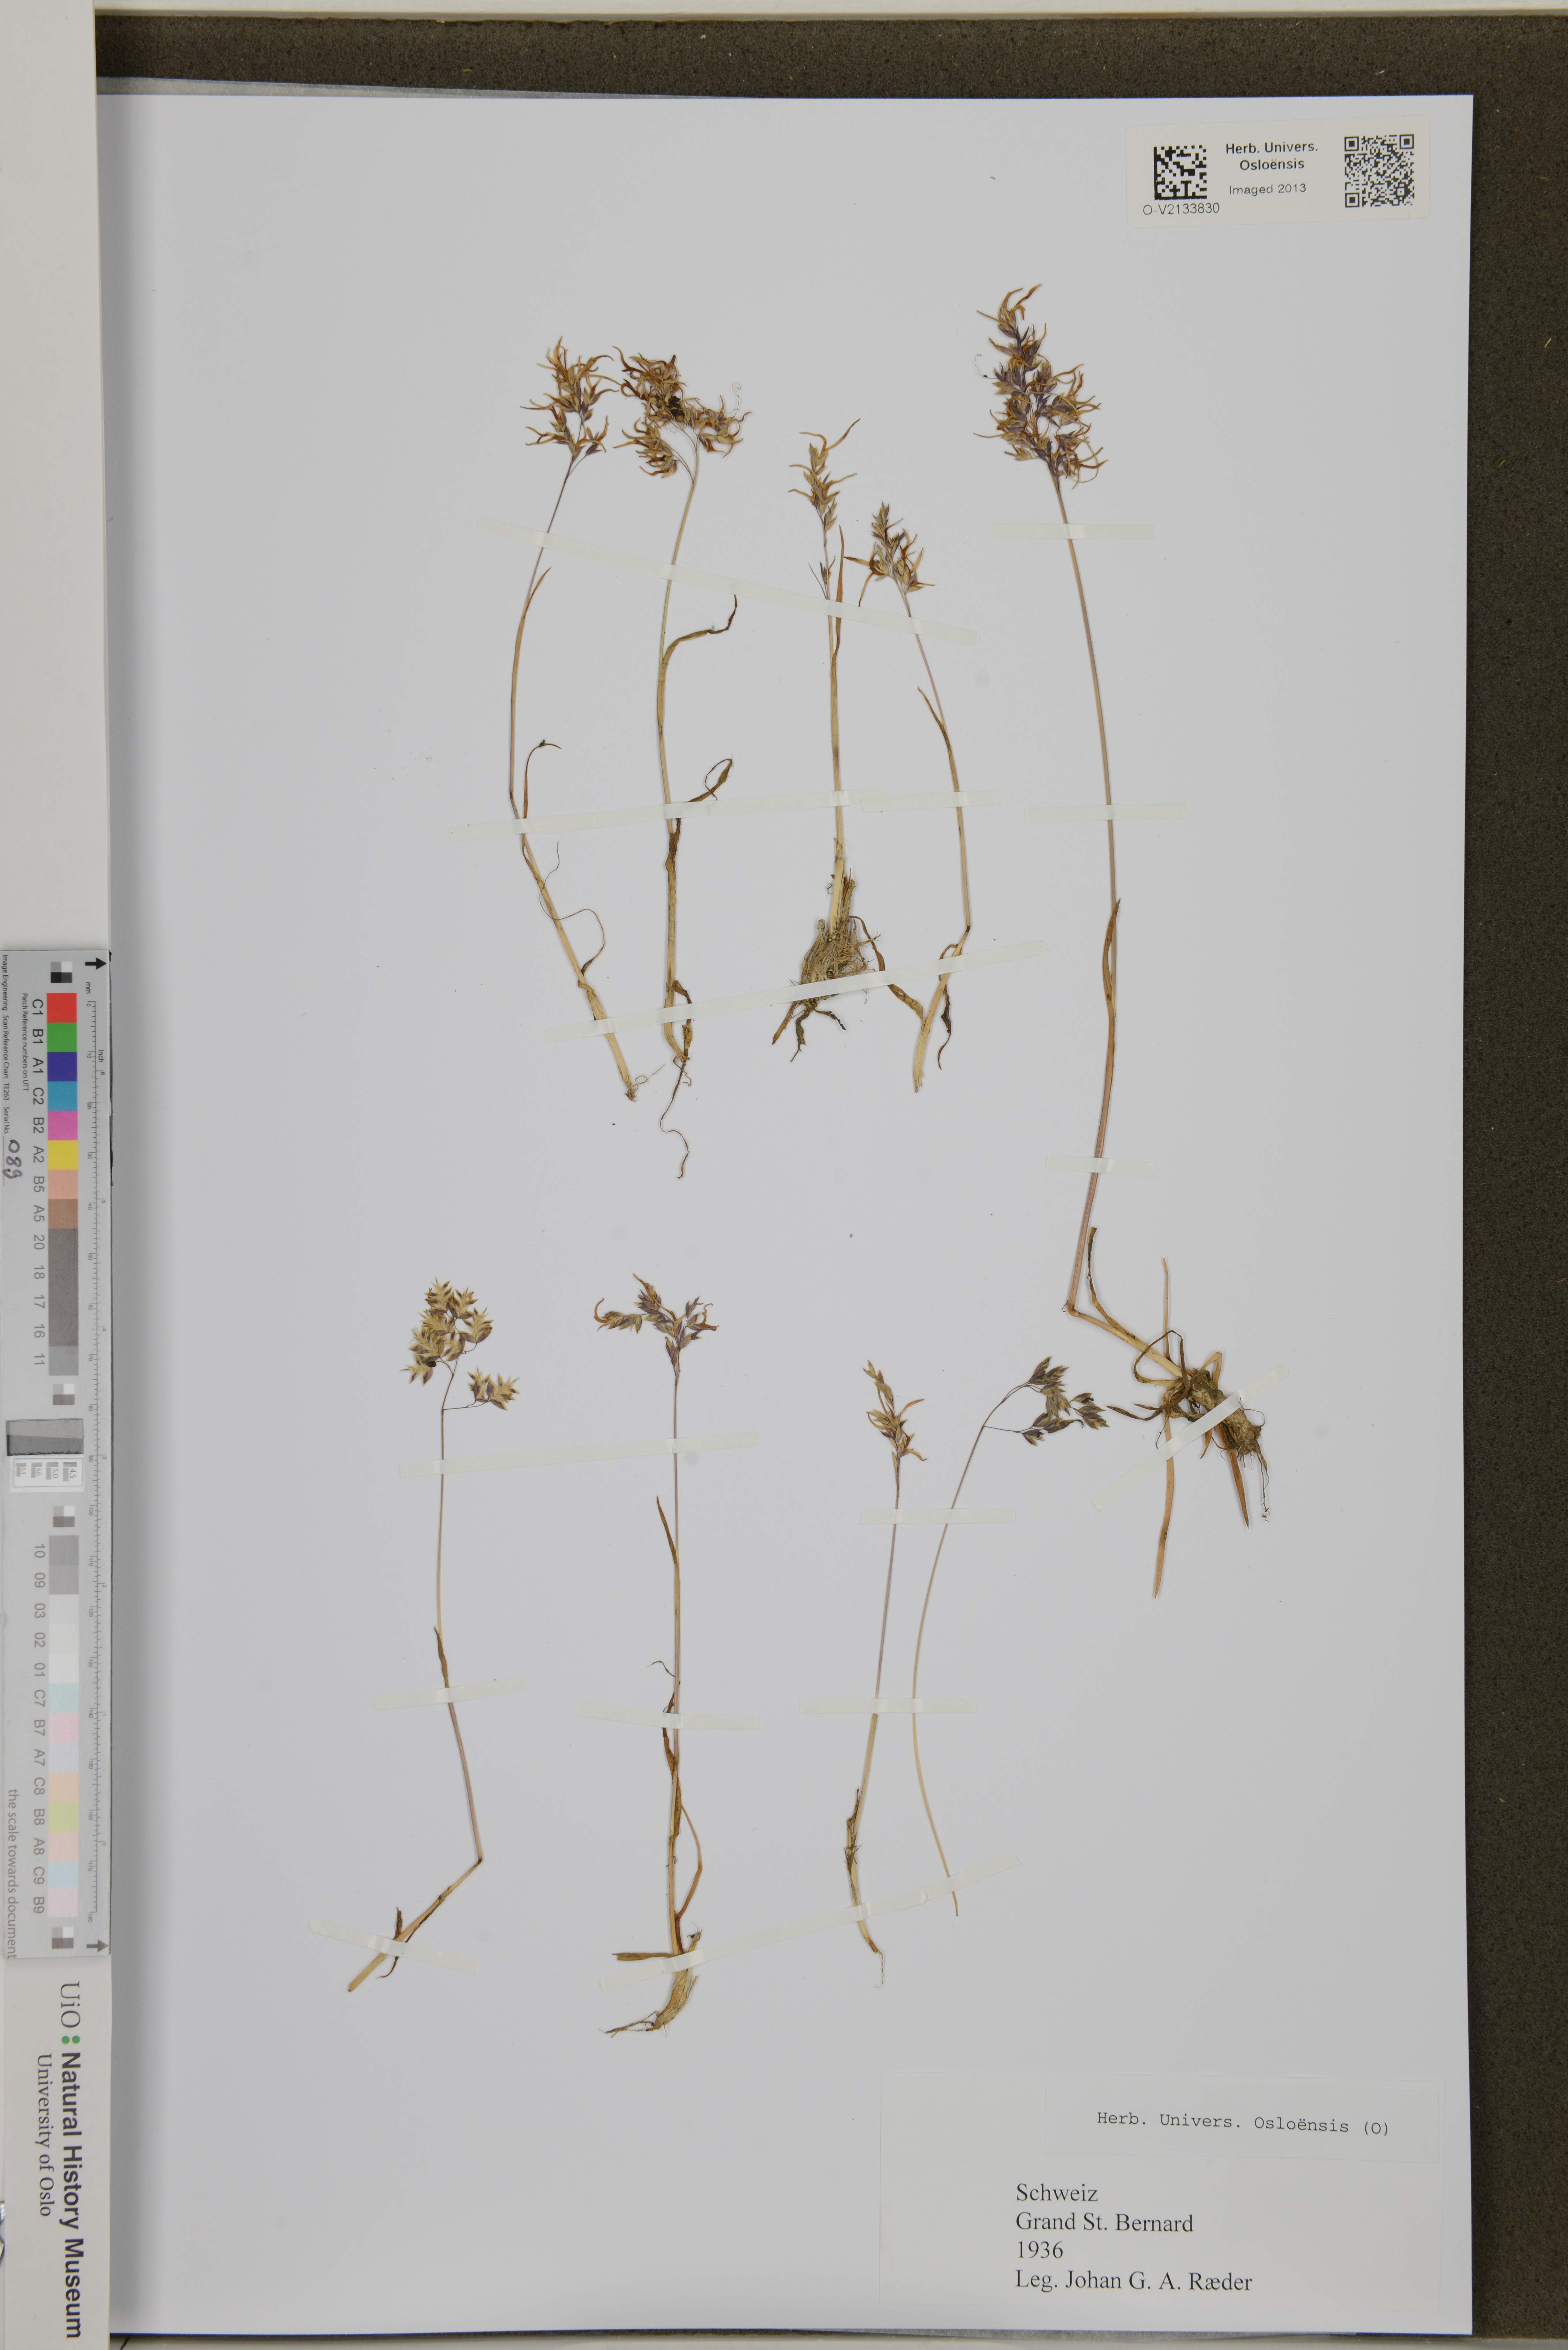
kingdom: Plantae
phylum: Tracheophyta
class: Liliopsida
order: Poales
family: Poaceae
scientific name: Poaceae
